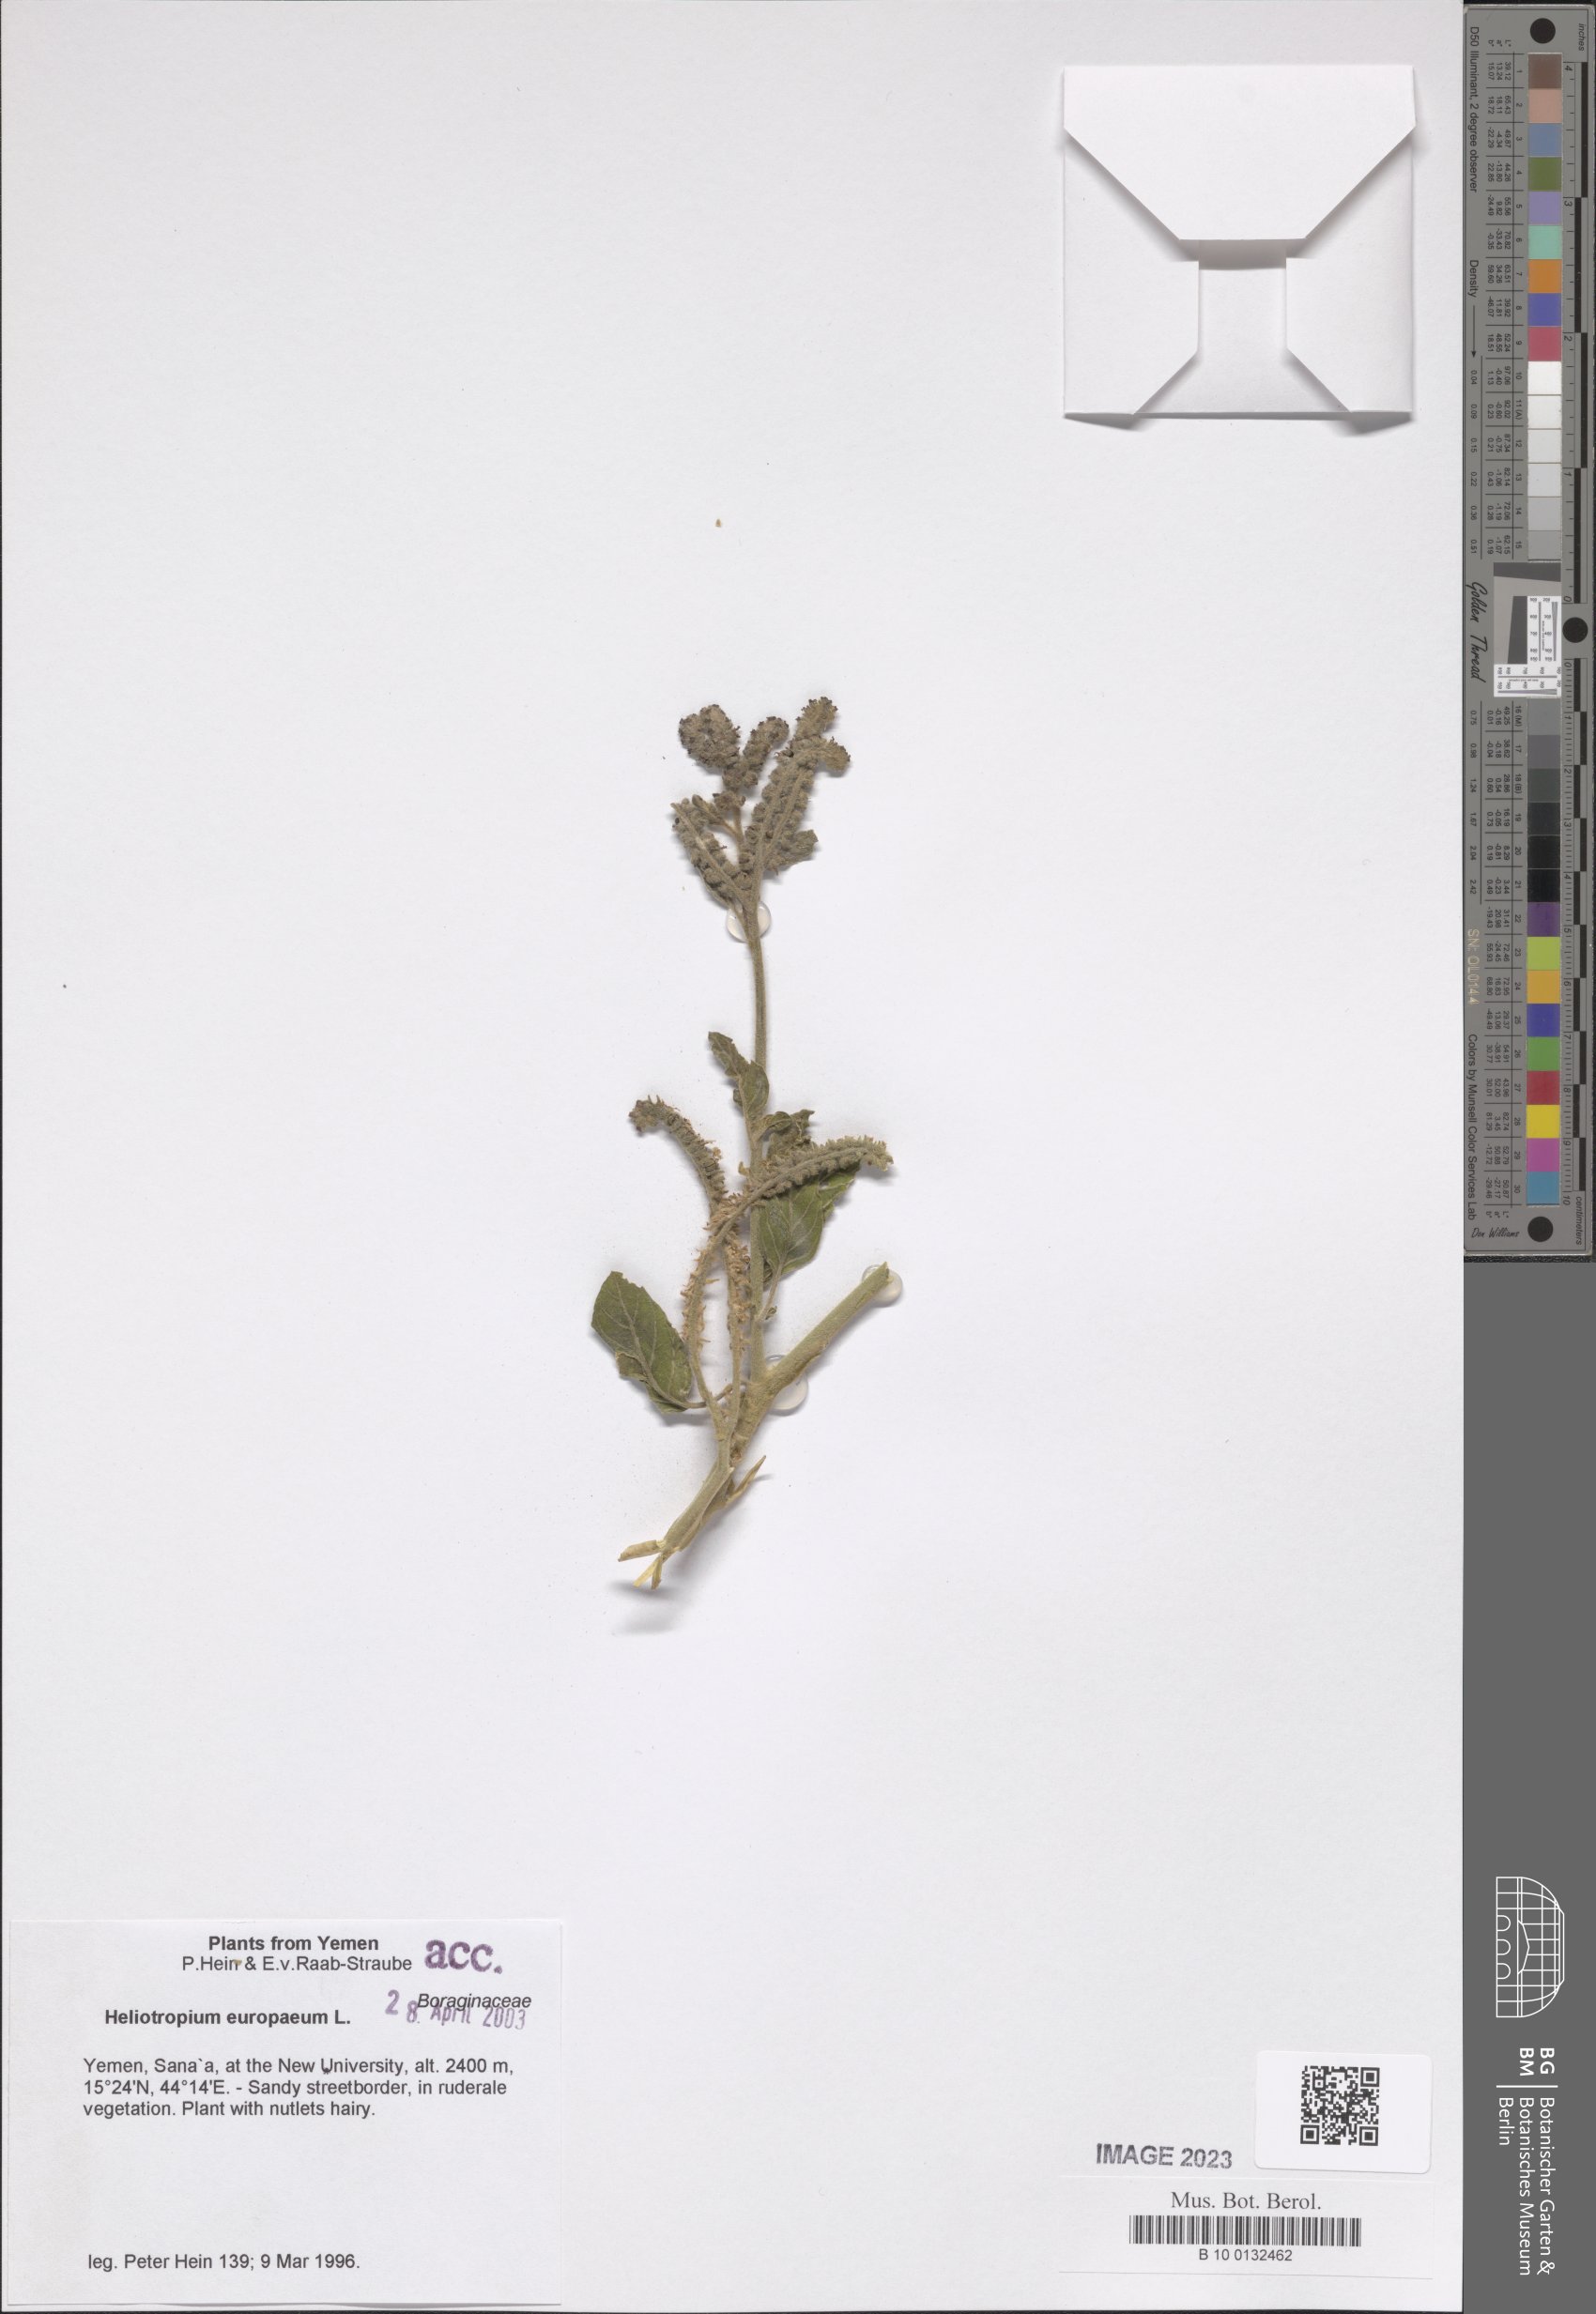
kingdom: Plantae
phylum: Tracheophyta
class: Magnoliopsida
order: Boraginales
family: Heliotropiaceae
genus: Heliotropium
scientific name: Heliotropium europaeum
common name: European heliotrope
